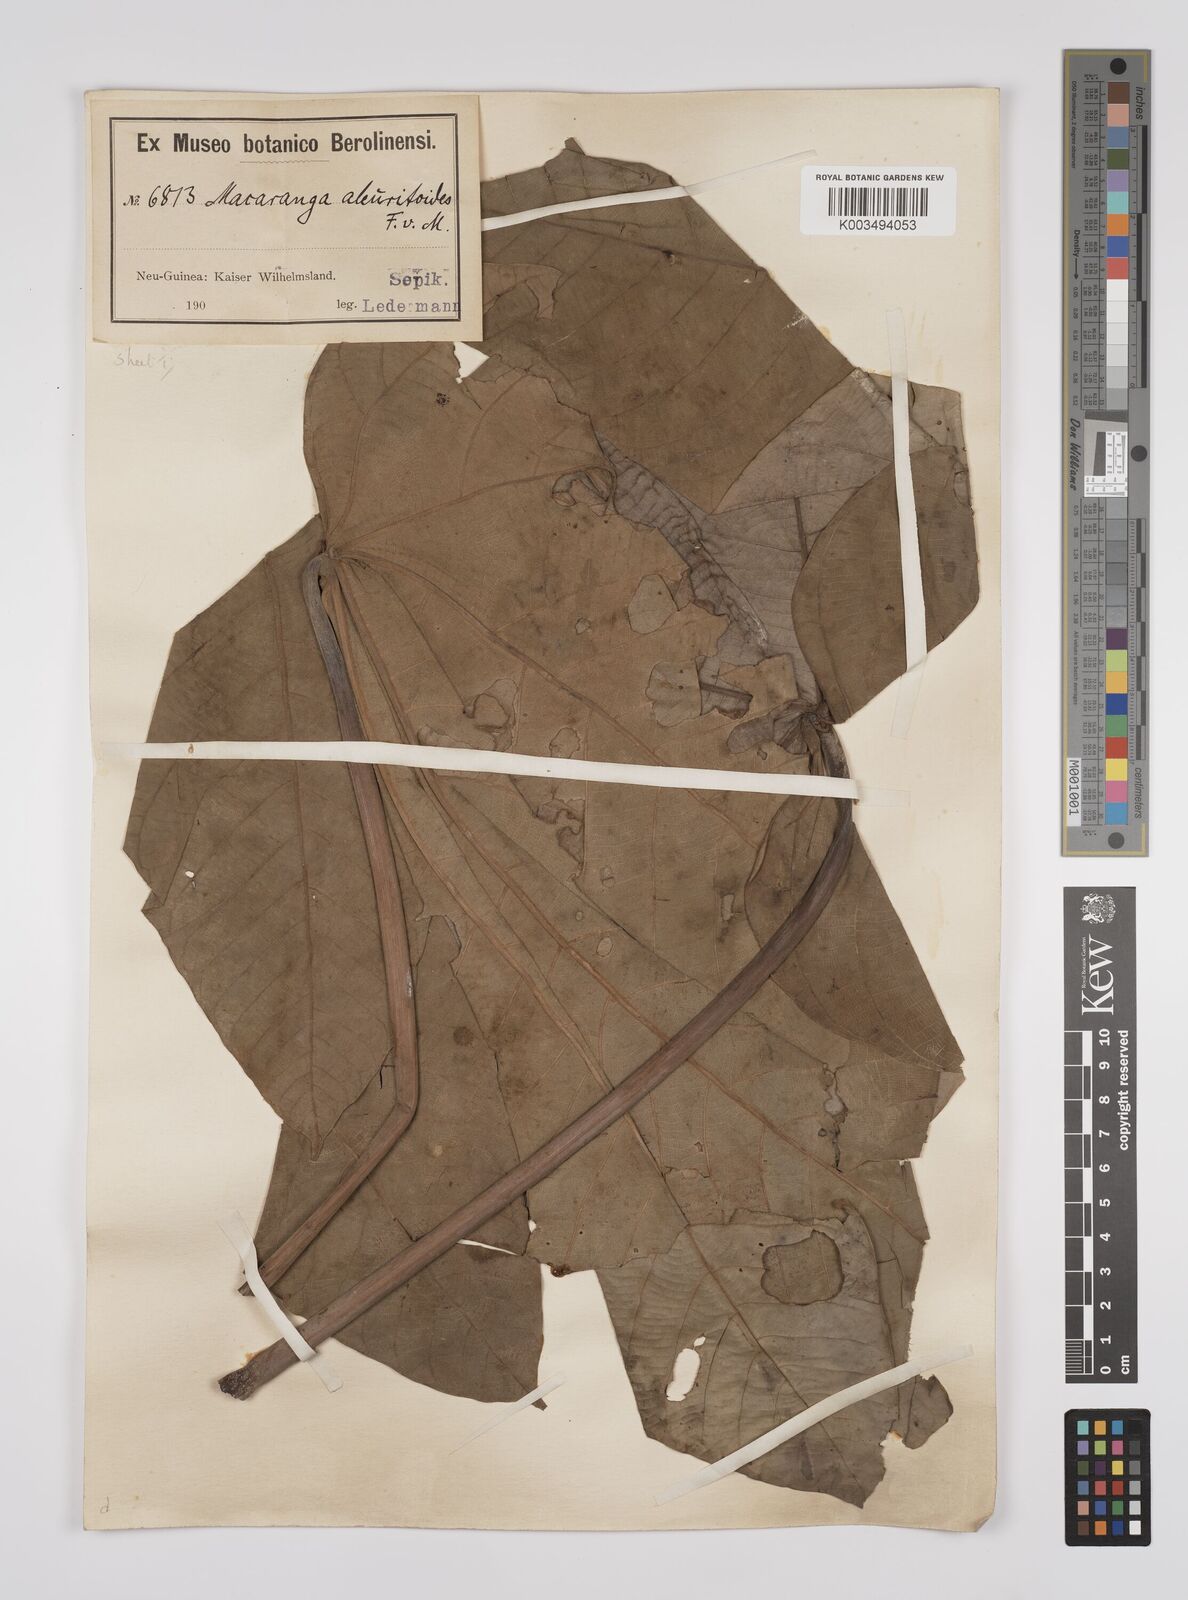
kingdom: Plantae
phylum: Tracheophyta
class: Magnoliopsida
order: Malpighiales
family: Euphorbiaceae
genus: Macaranga
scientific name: Macaranga aleuritoides
